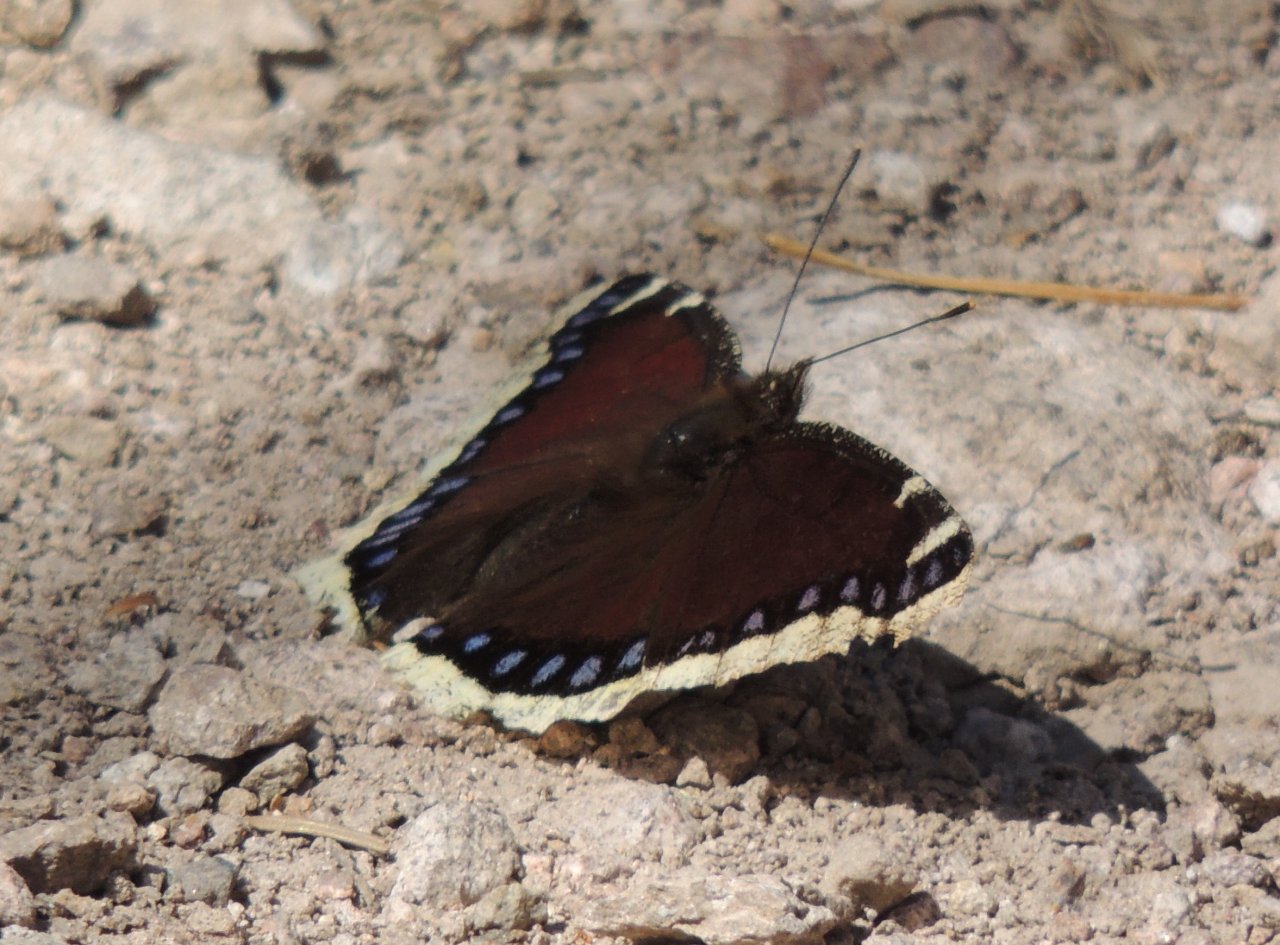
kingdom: Animalia
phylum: Arthropoda
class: Insecta
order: Lepidoptera
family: Nymphalidae
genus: Nymphalis
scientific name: Nymphalis antiopa
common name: Mourning Cloak
